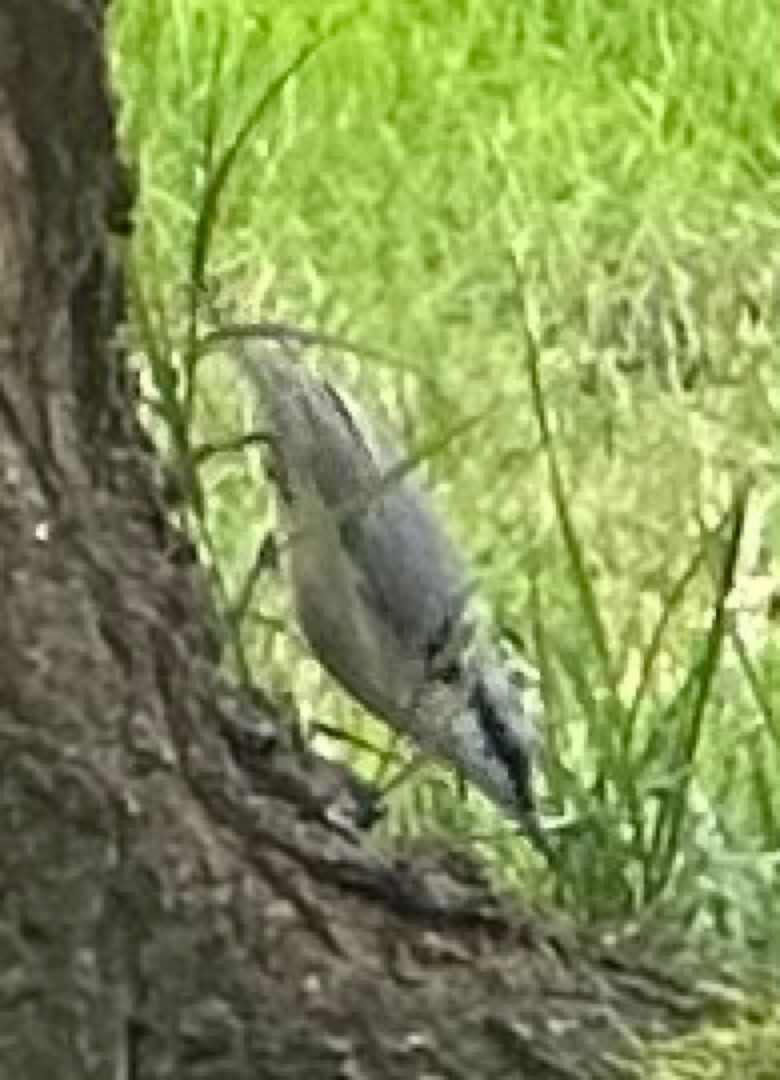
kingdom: Animalia
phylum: Chordata
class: Aves
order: Passeriformes
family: Sittidae
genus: Sitta
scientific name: Sitta europaea
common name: Spætmejse
